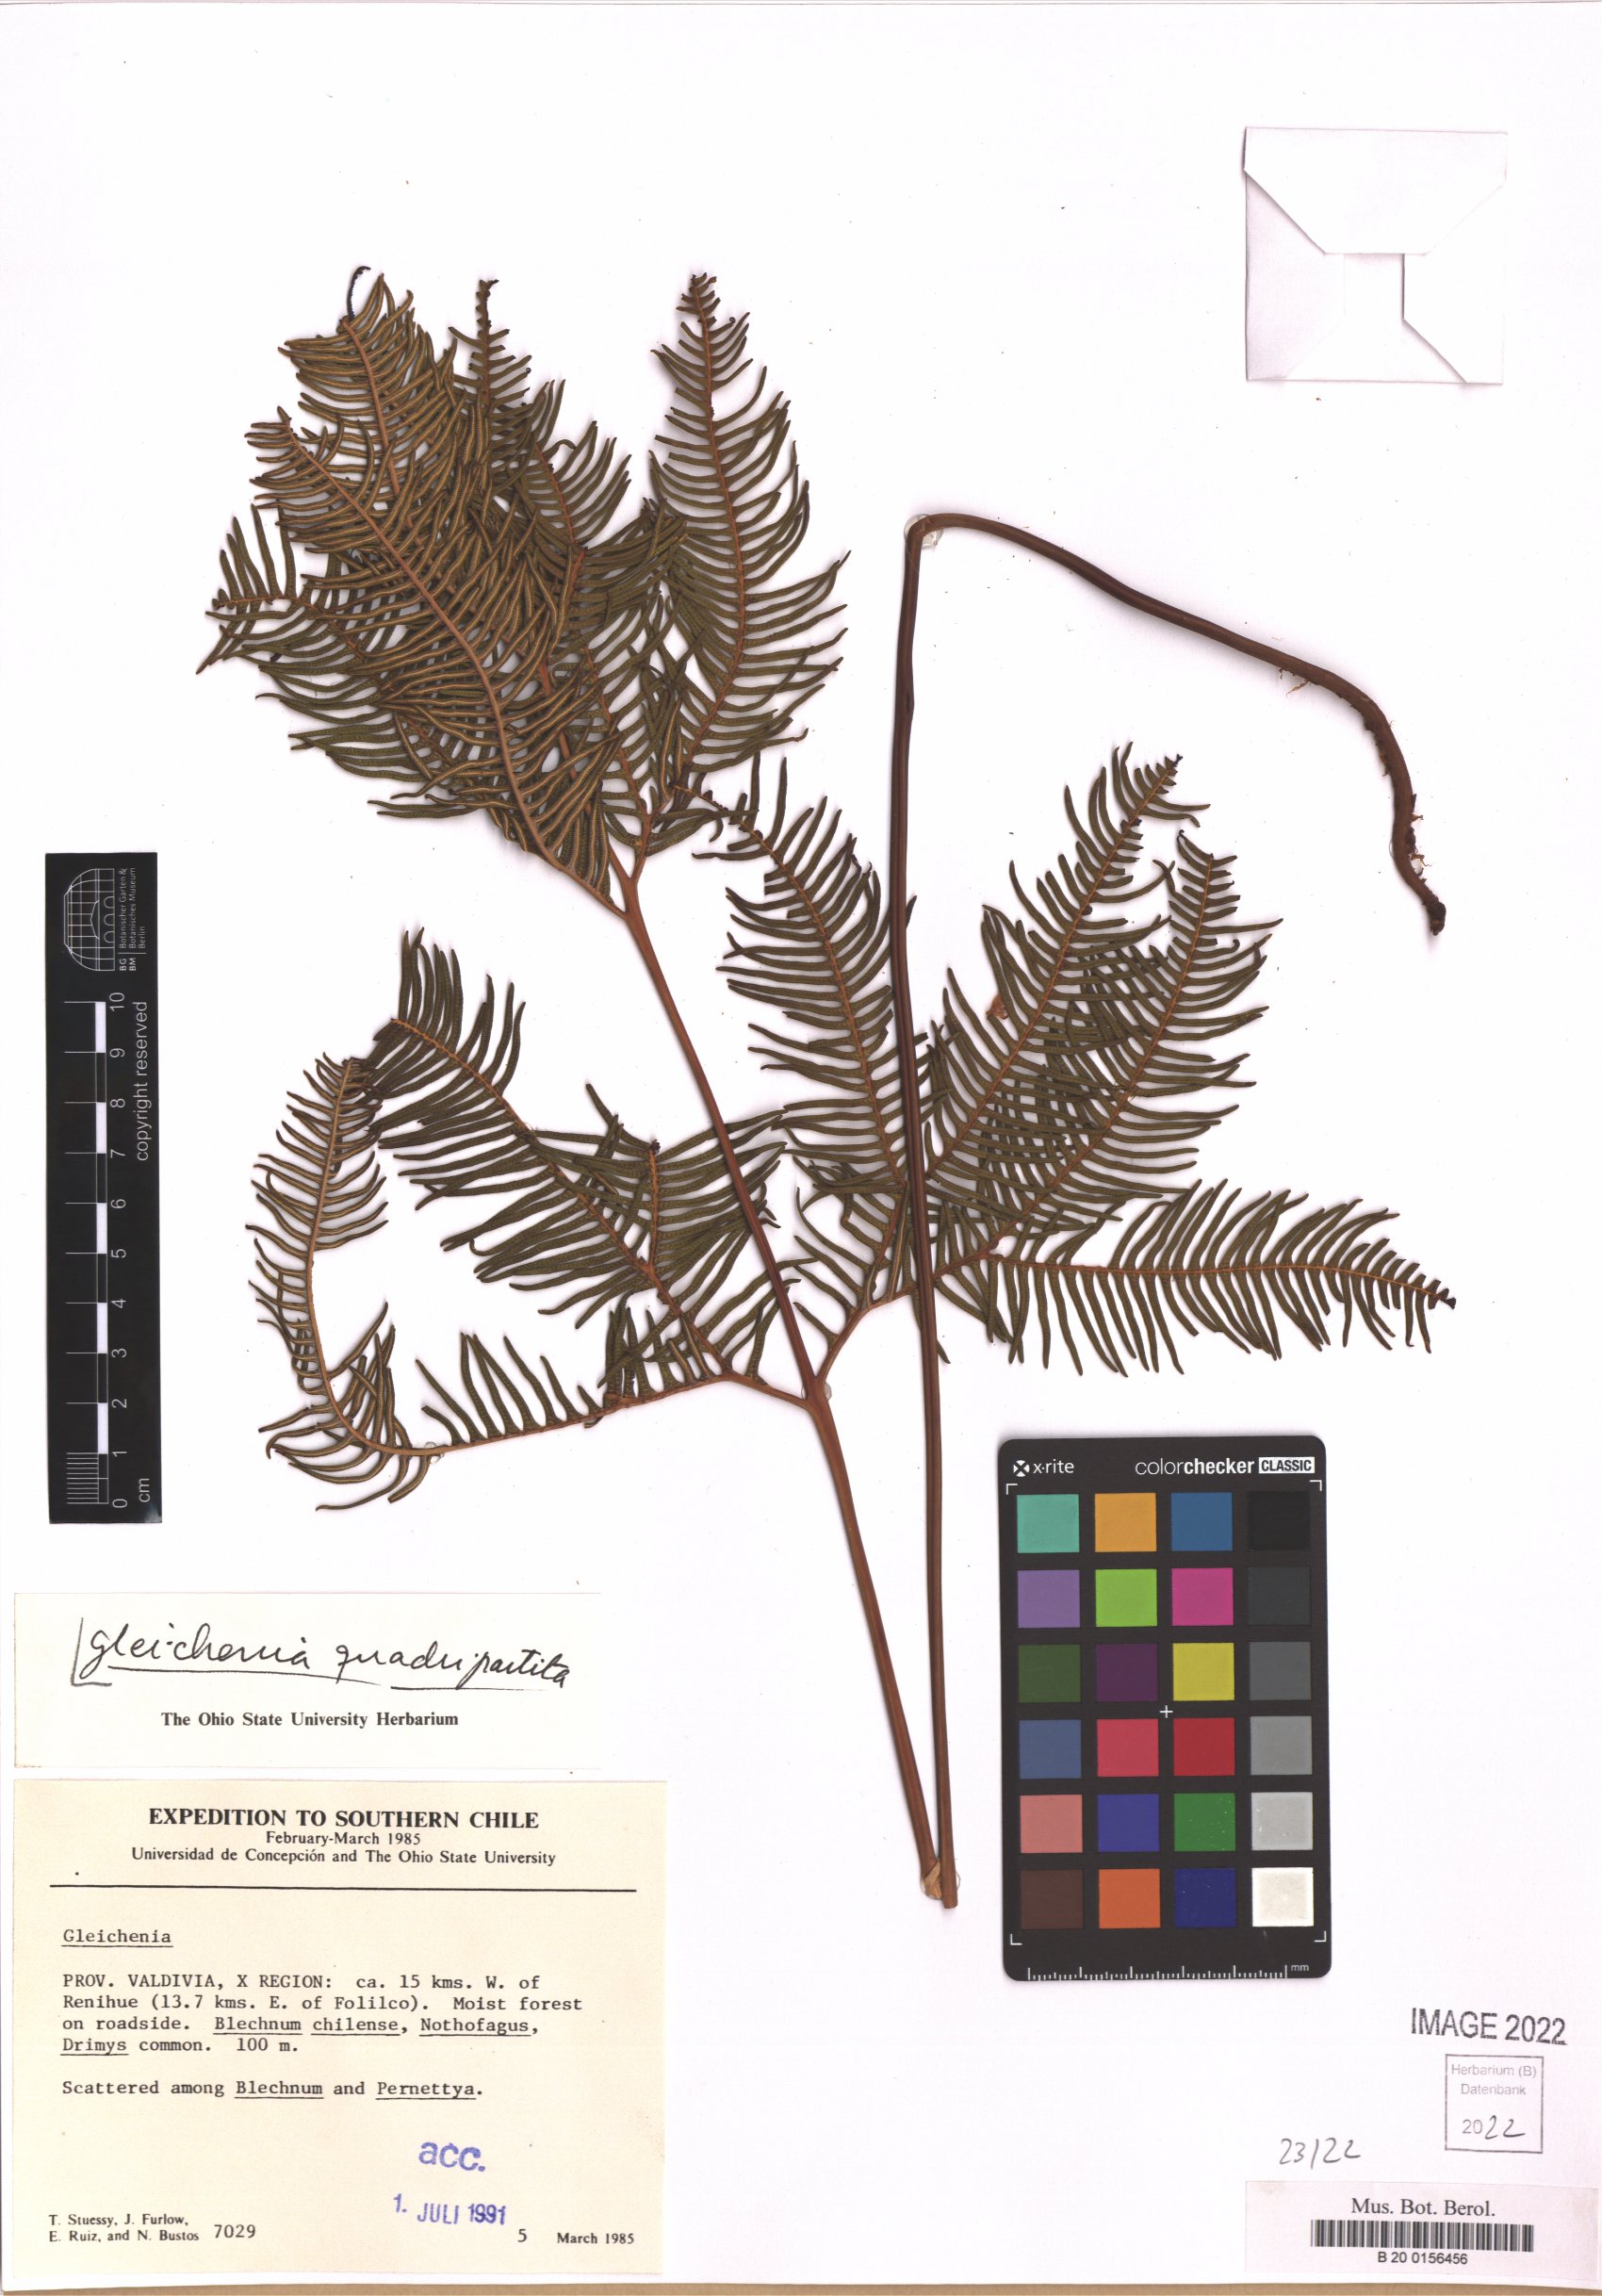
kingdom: Plantae
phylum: Tracheophyta
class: Polypodiopsida
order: Gleicheniales
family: Gleicheniaceae
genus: Sticherus
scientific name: Sticherus quadripartitus
